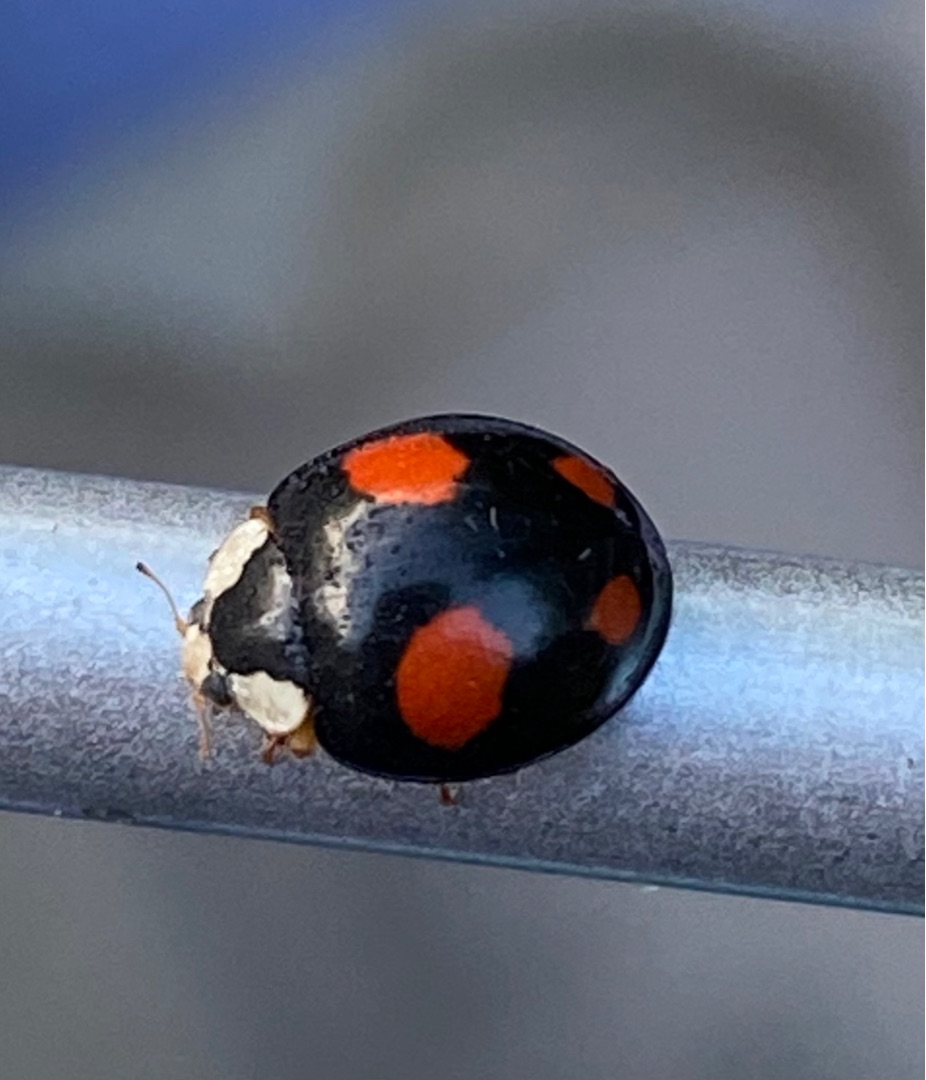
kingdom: Animalia
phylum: Arthropoda
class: Insecta
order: Coleoptera
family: Coccinellidae
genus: Harmonia
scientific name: Harmonia axyridis
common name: Harlekinmariehøne
